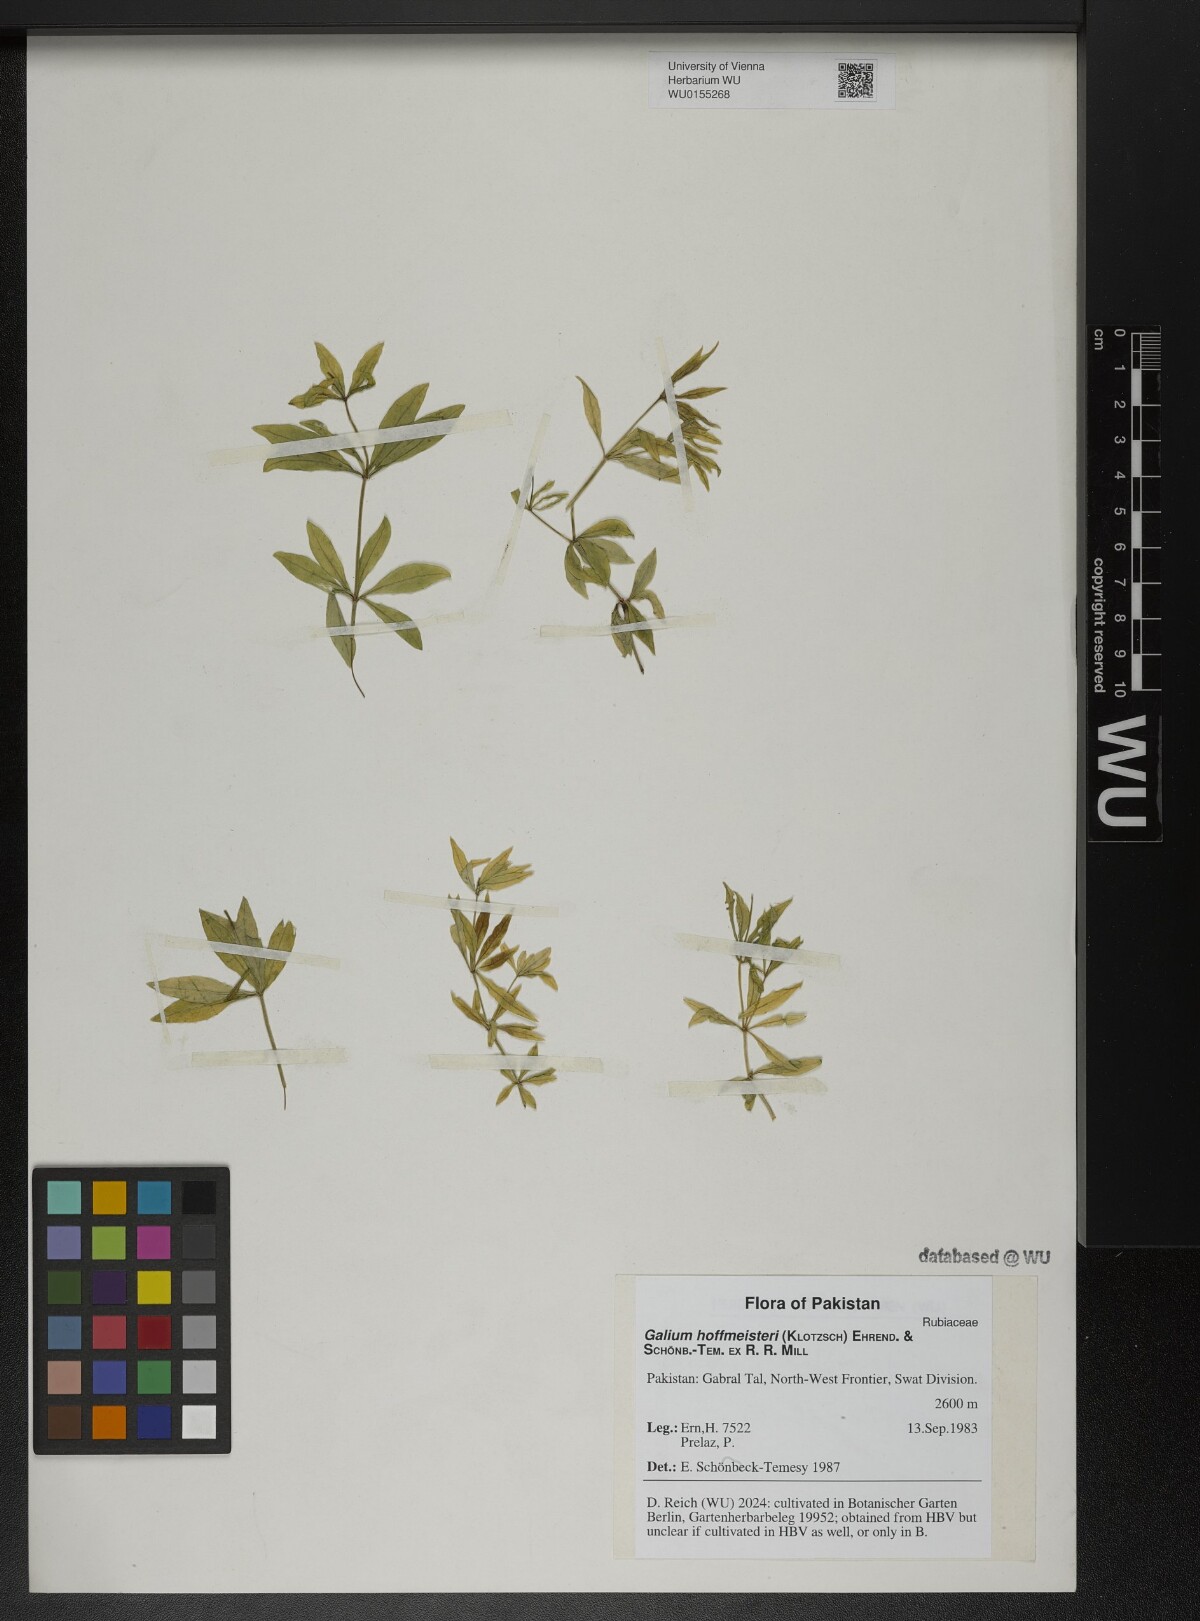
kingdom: Plantae
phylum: Tracheophyta
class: Magnoliopsida
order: Gentianales
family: Rubiaceae
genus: Galium
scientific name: Galium hoffmeisteri
